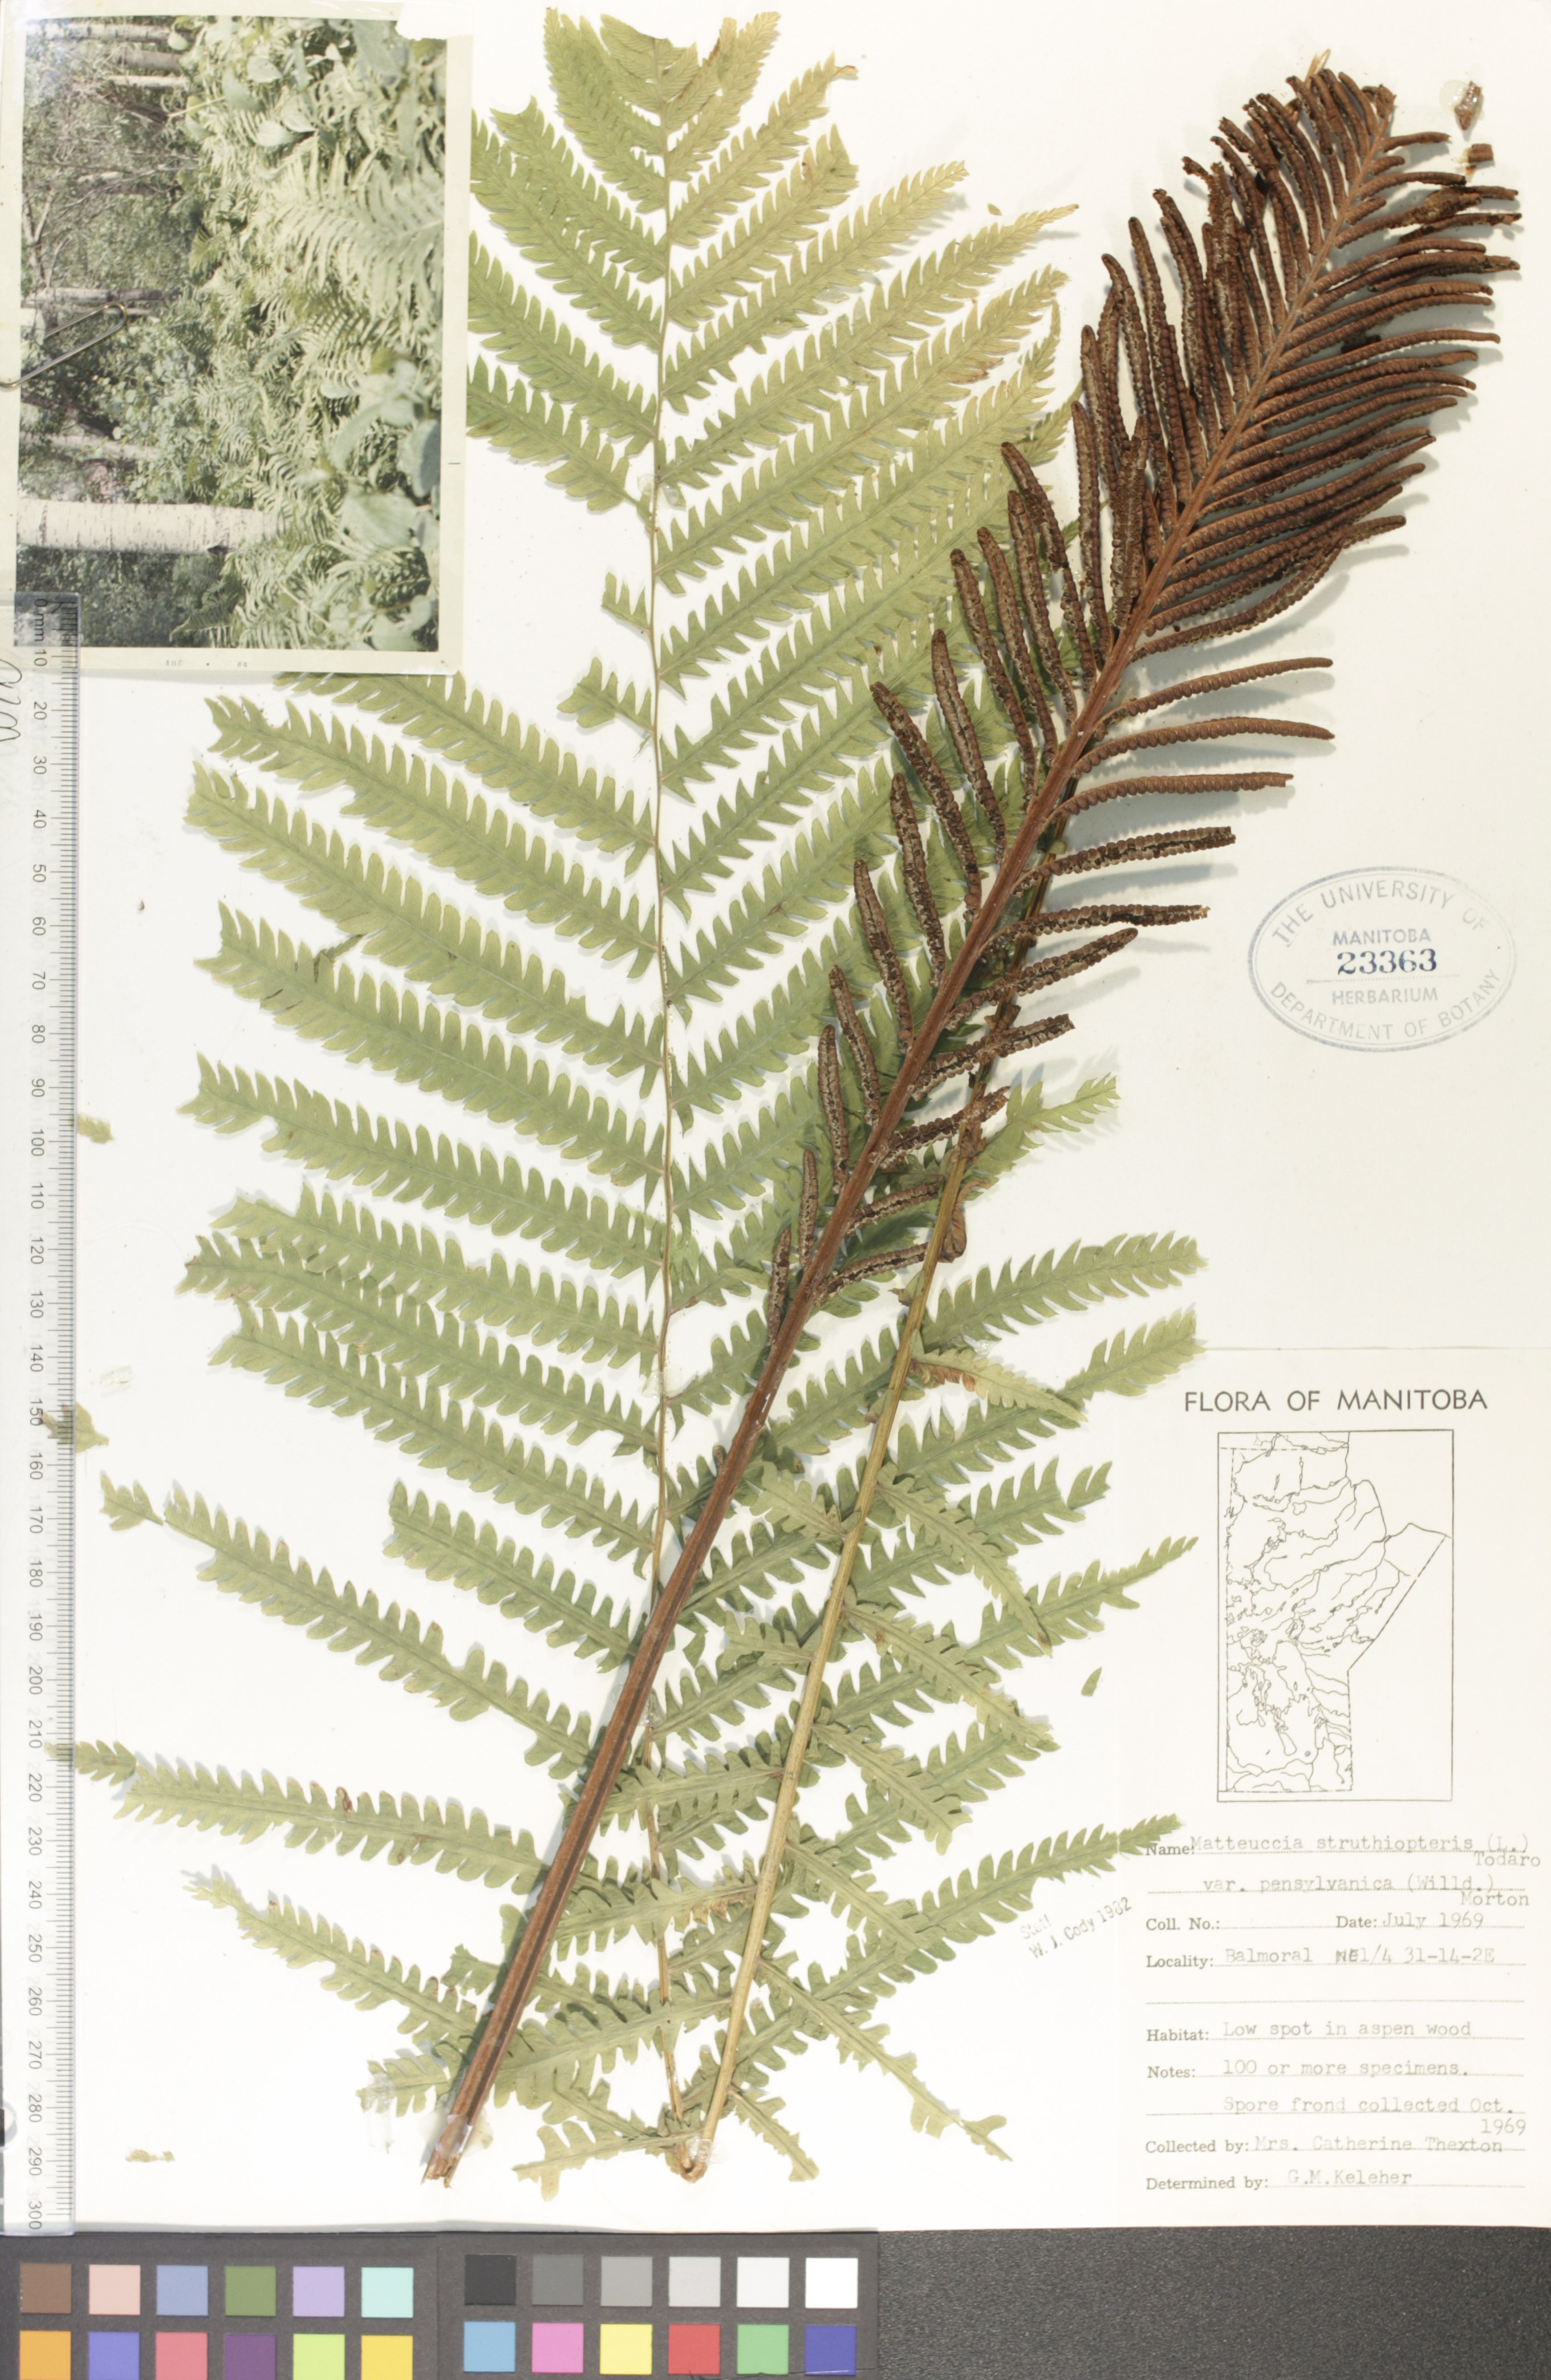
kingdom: Plantae
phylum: Tracheophyta
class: Polypodiopsida
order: Polypodiales
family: Onocleaceae
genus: Matteuccia
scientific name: Matteuccia pensylvanica
